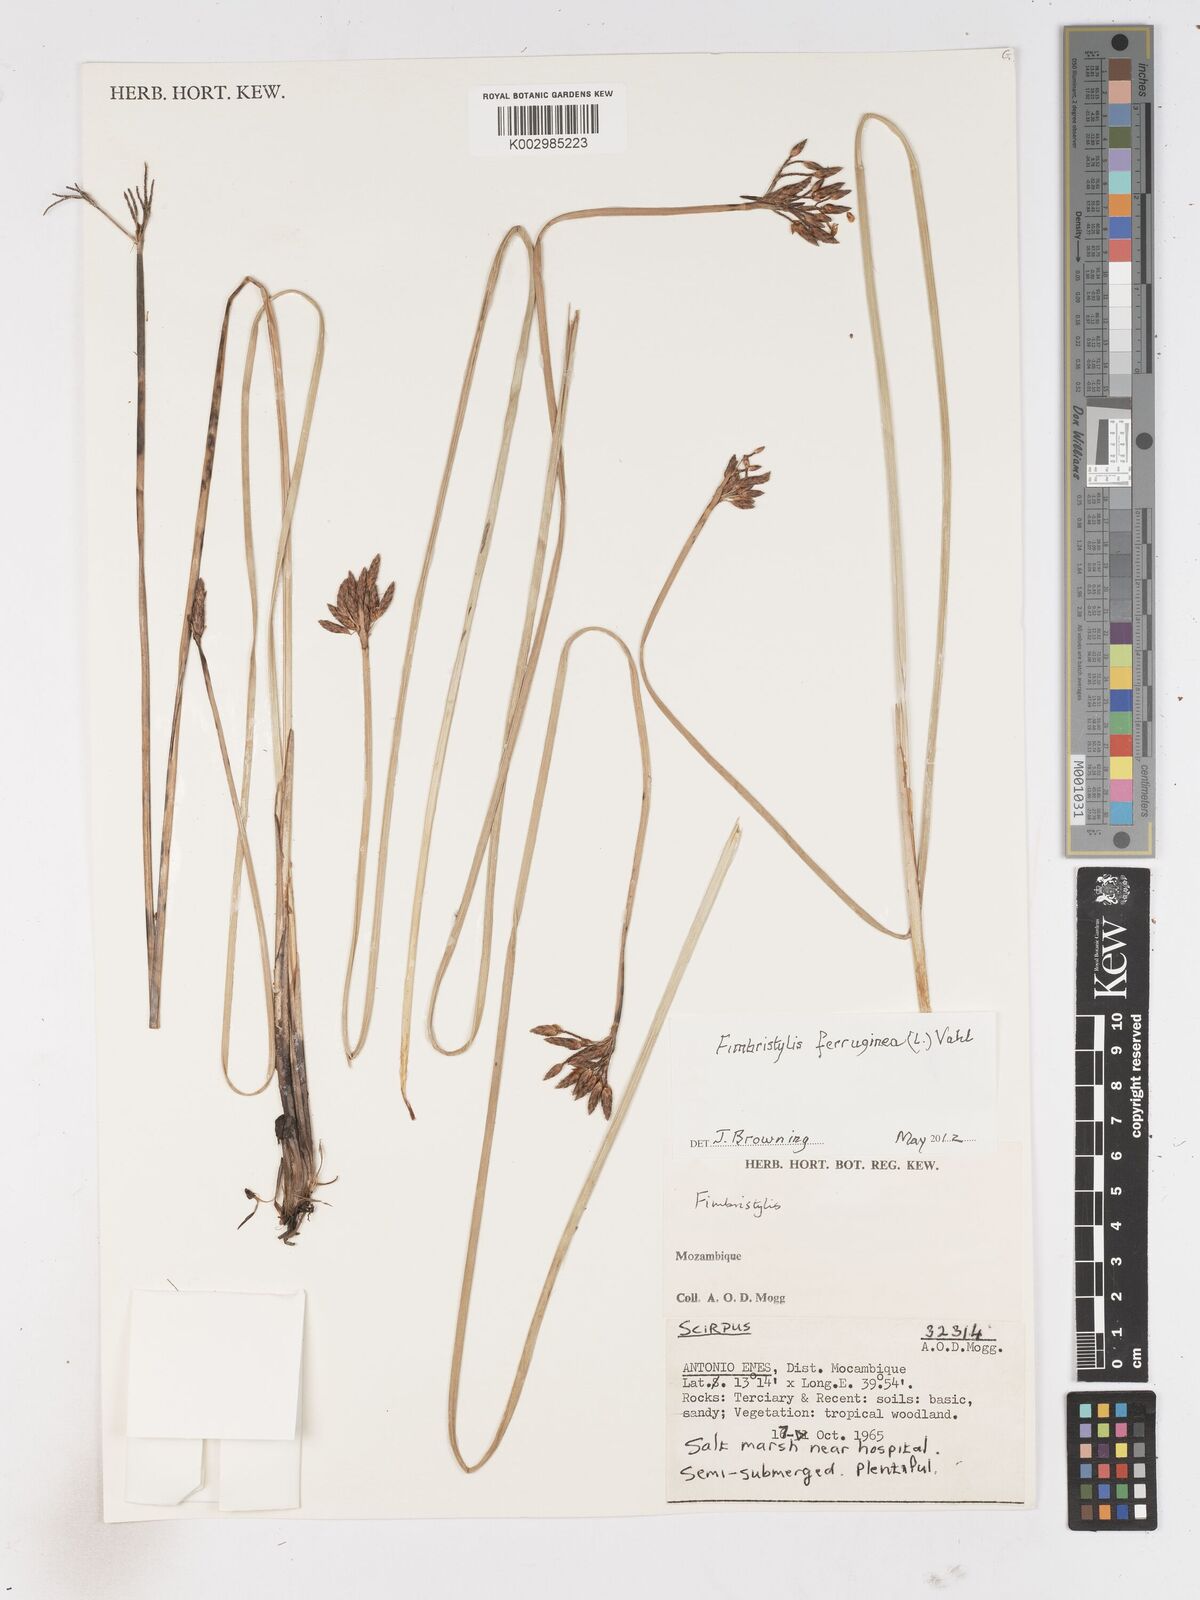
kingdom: Plantae
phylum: Tracheophyta
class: Liliopsida
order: Poales
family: Cyperaceae
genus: Fimbristylis
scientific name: Fimbristylis ferruginea
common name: West indian fimbry
